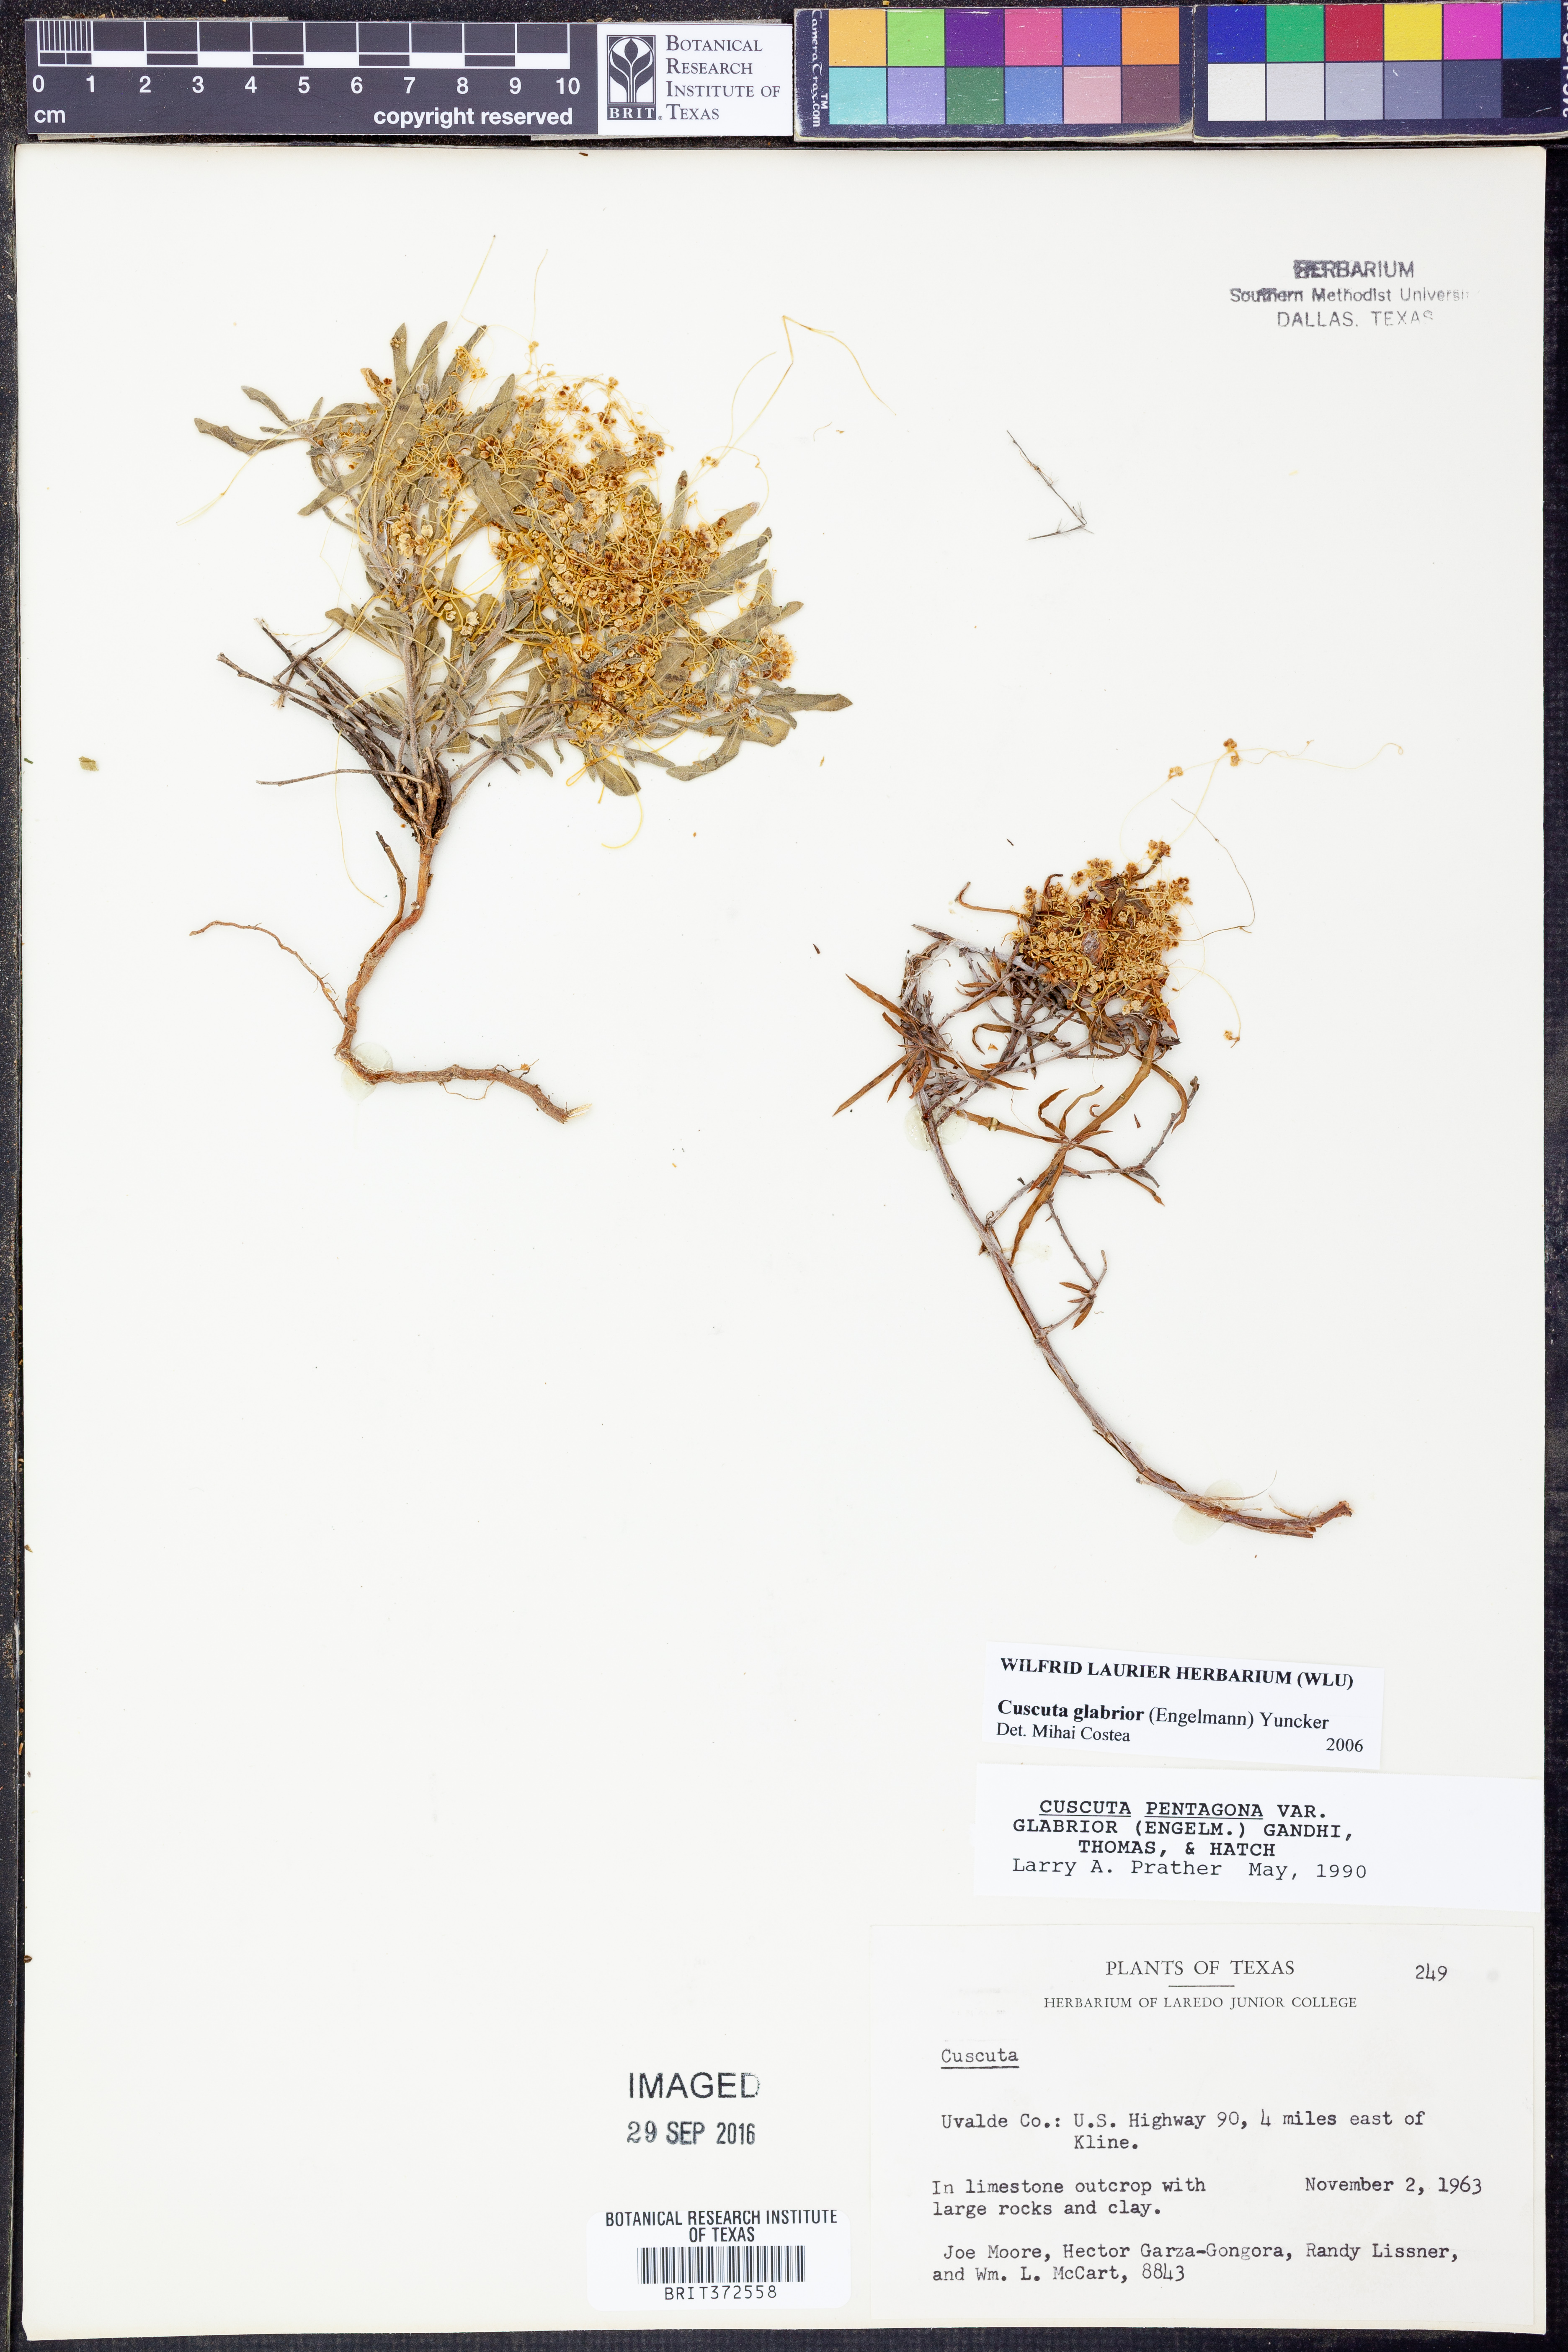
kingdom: Plantae
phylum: Tracheophyta
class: Magnoliopsida
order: Solanales
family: Convolvulaceae
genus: Cuscuta
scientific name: Cuscuta glabrior
